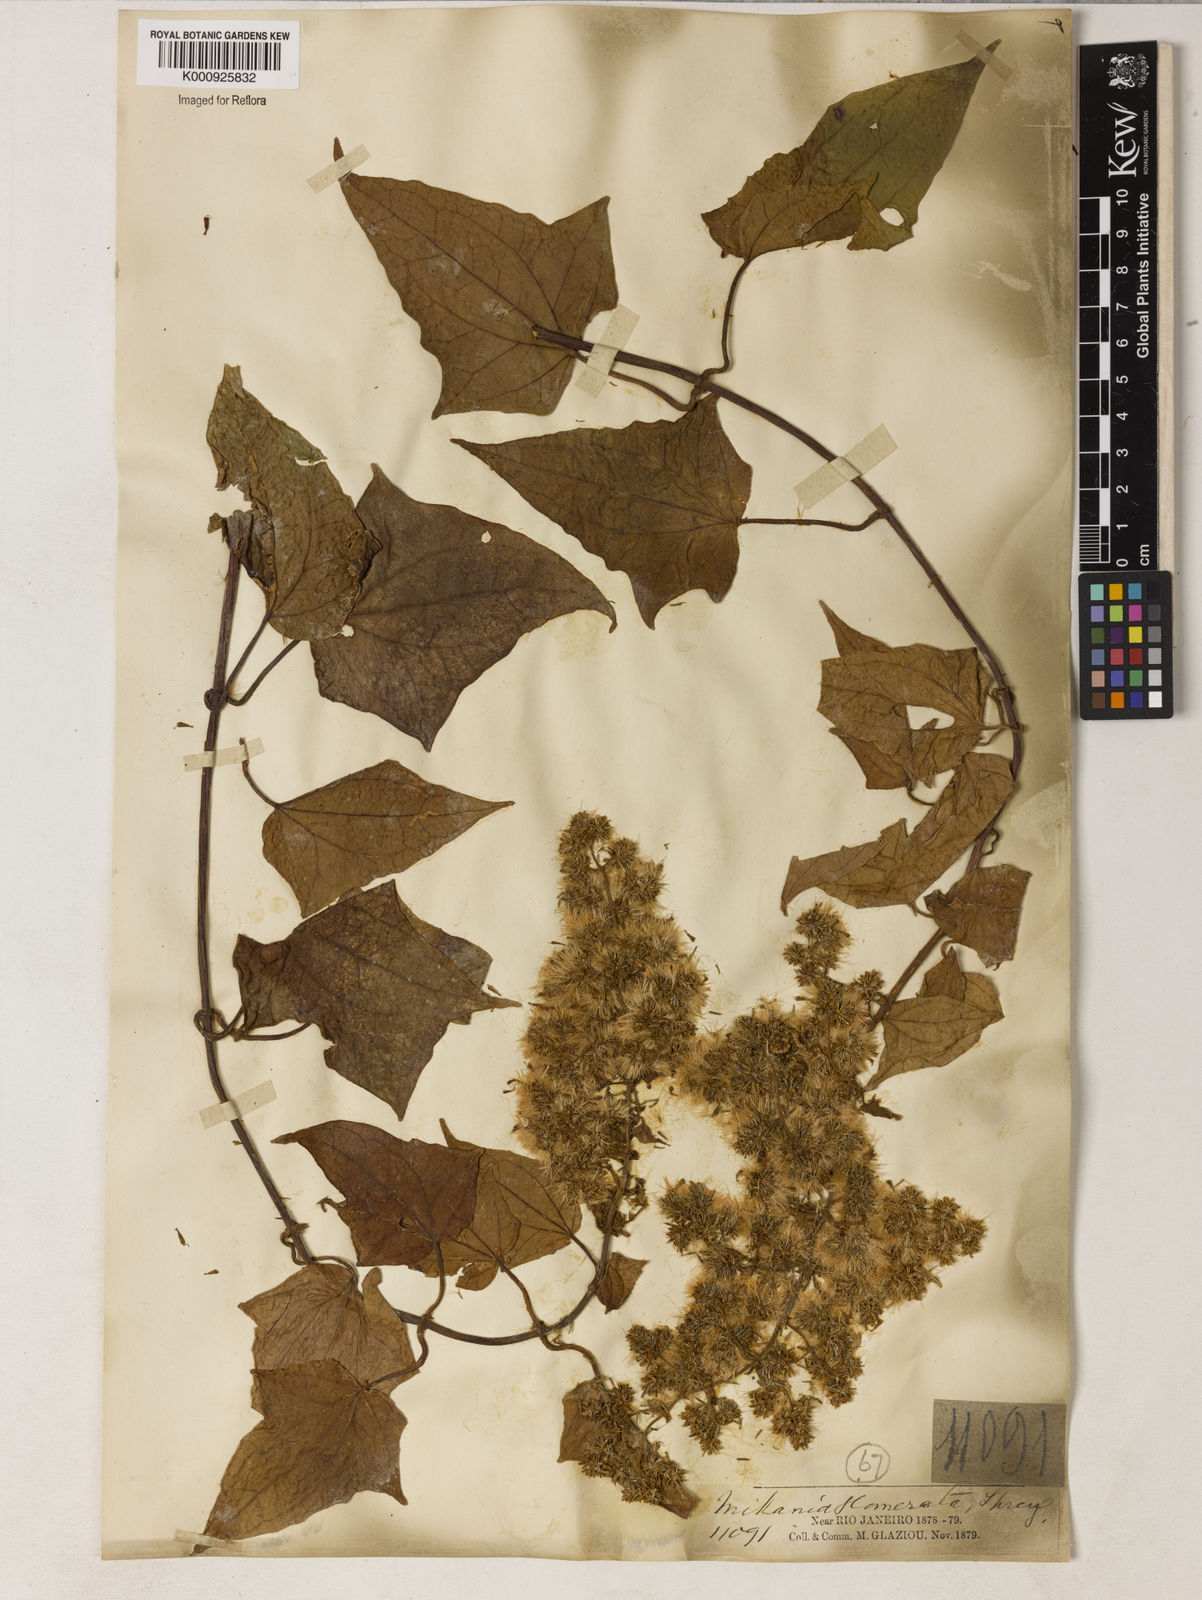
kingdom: Plantae
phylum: Tracheophyta
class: Magnoliopsida
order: Asterales
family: Asteraceae
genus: Mikania
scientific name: Mikania glomerata
